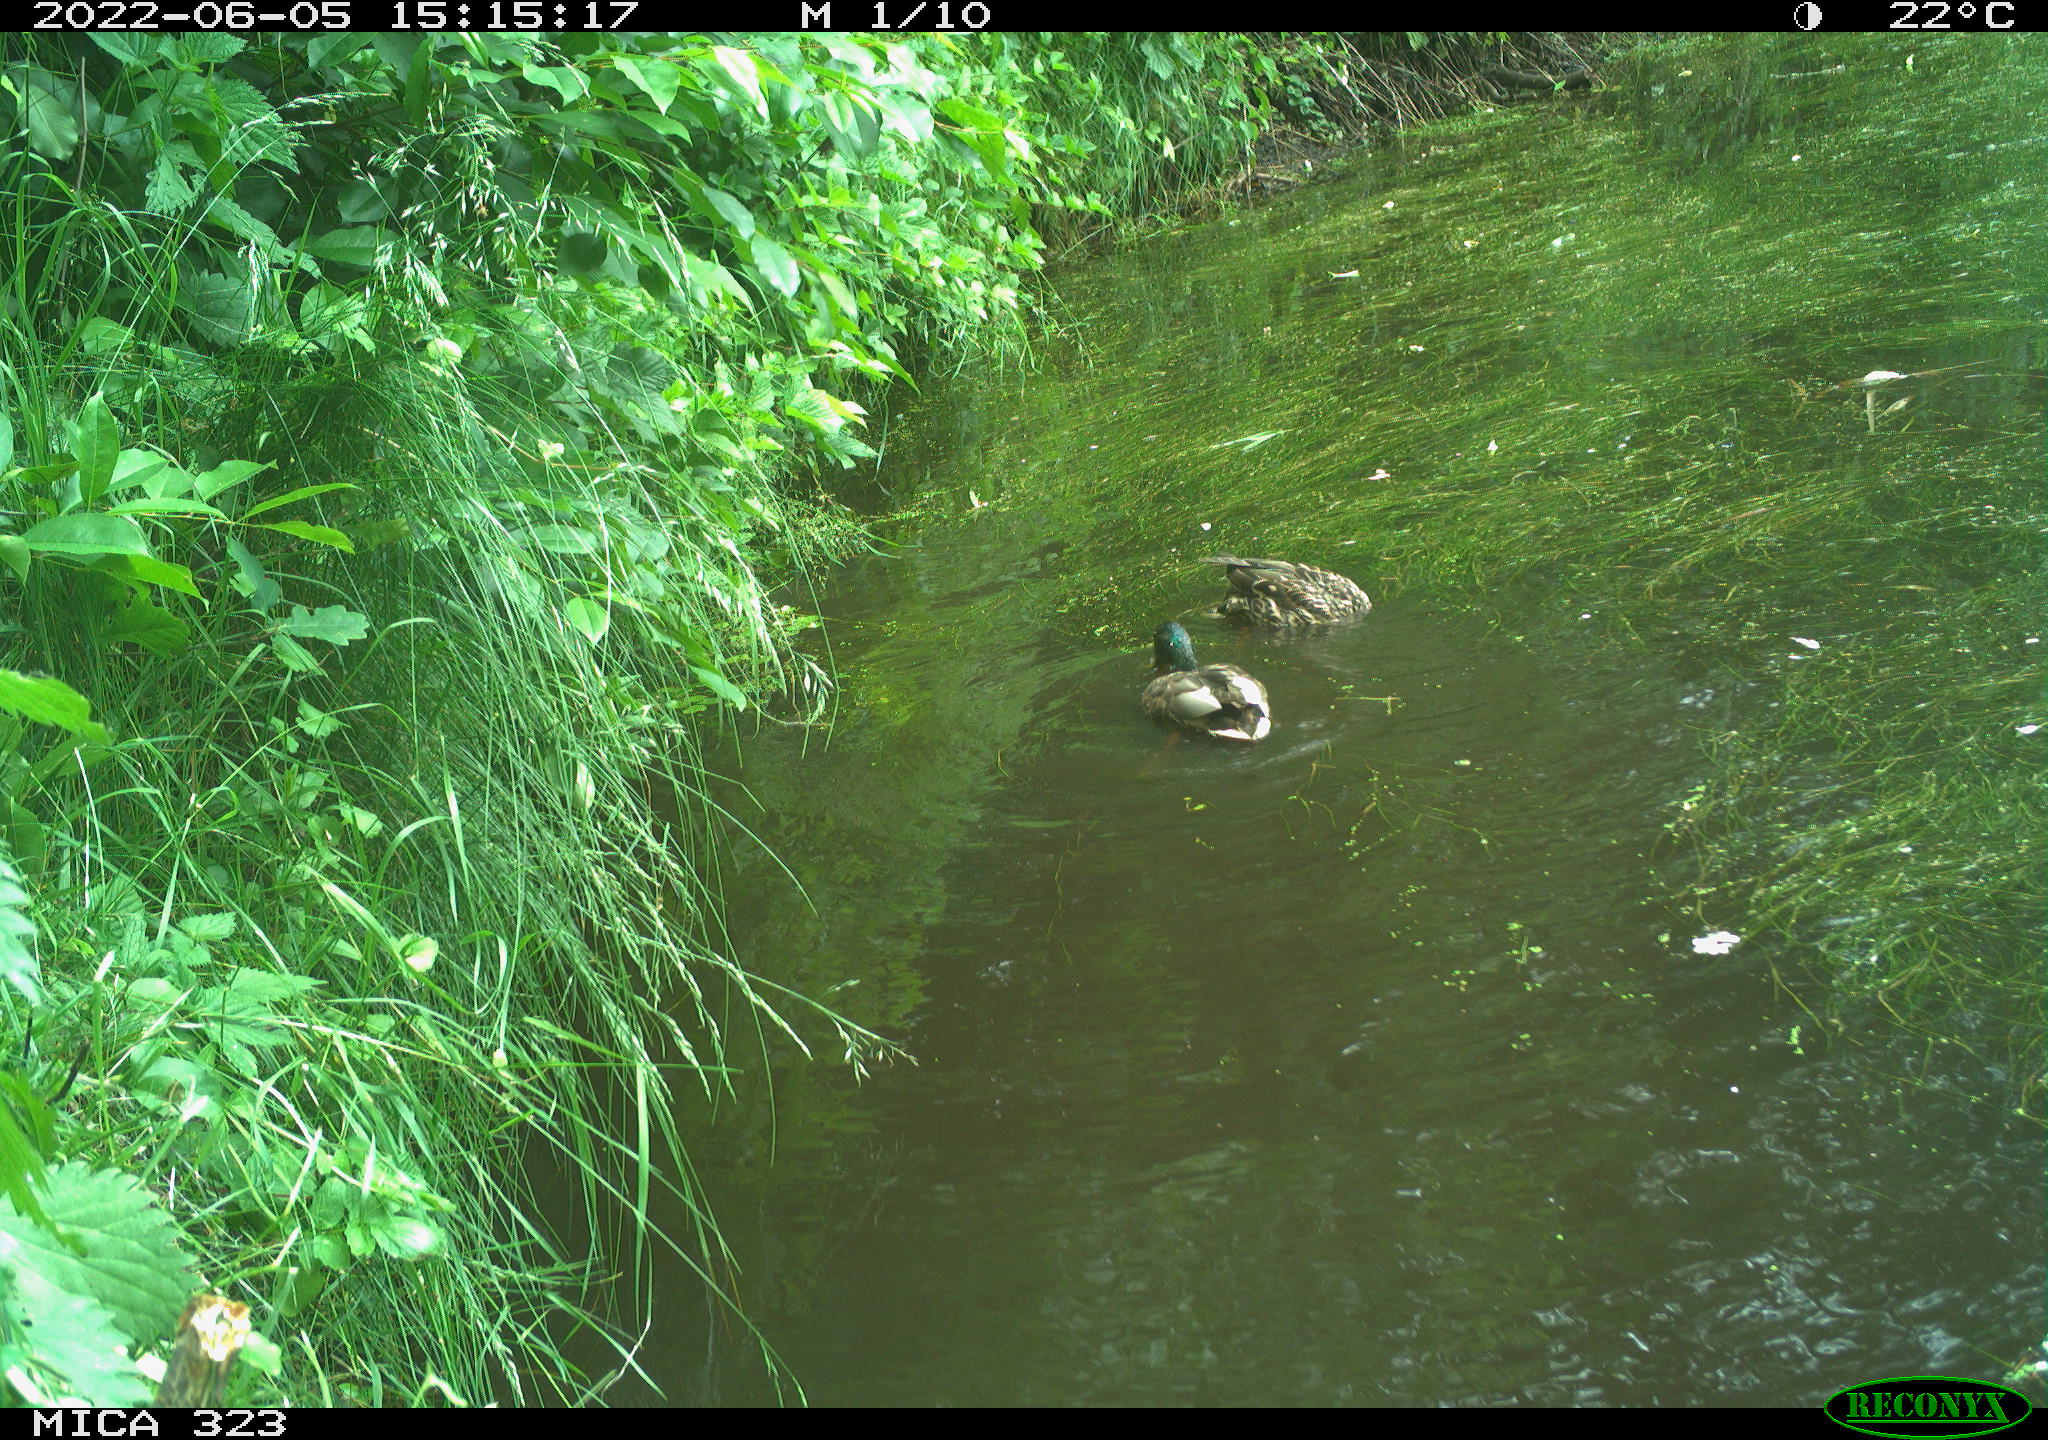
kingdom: Animalia
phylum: Chordata
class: Aves
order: Anseriformes
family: Anatidae
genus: Anas
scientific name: Anas platyrhynchos
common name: Mallard
